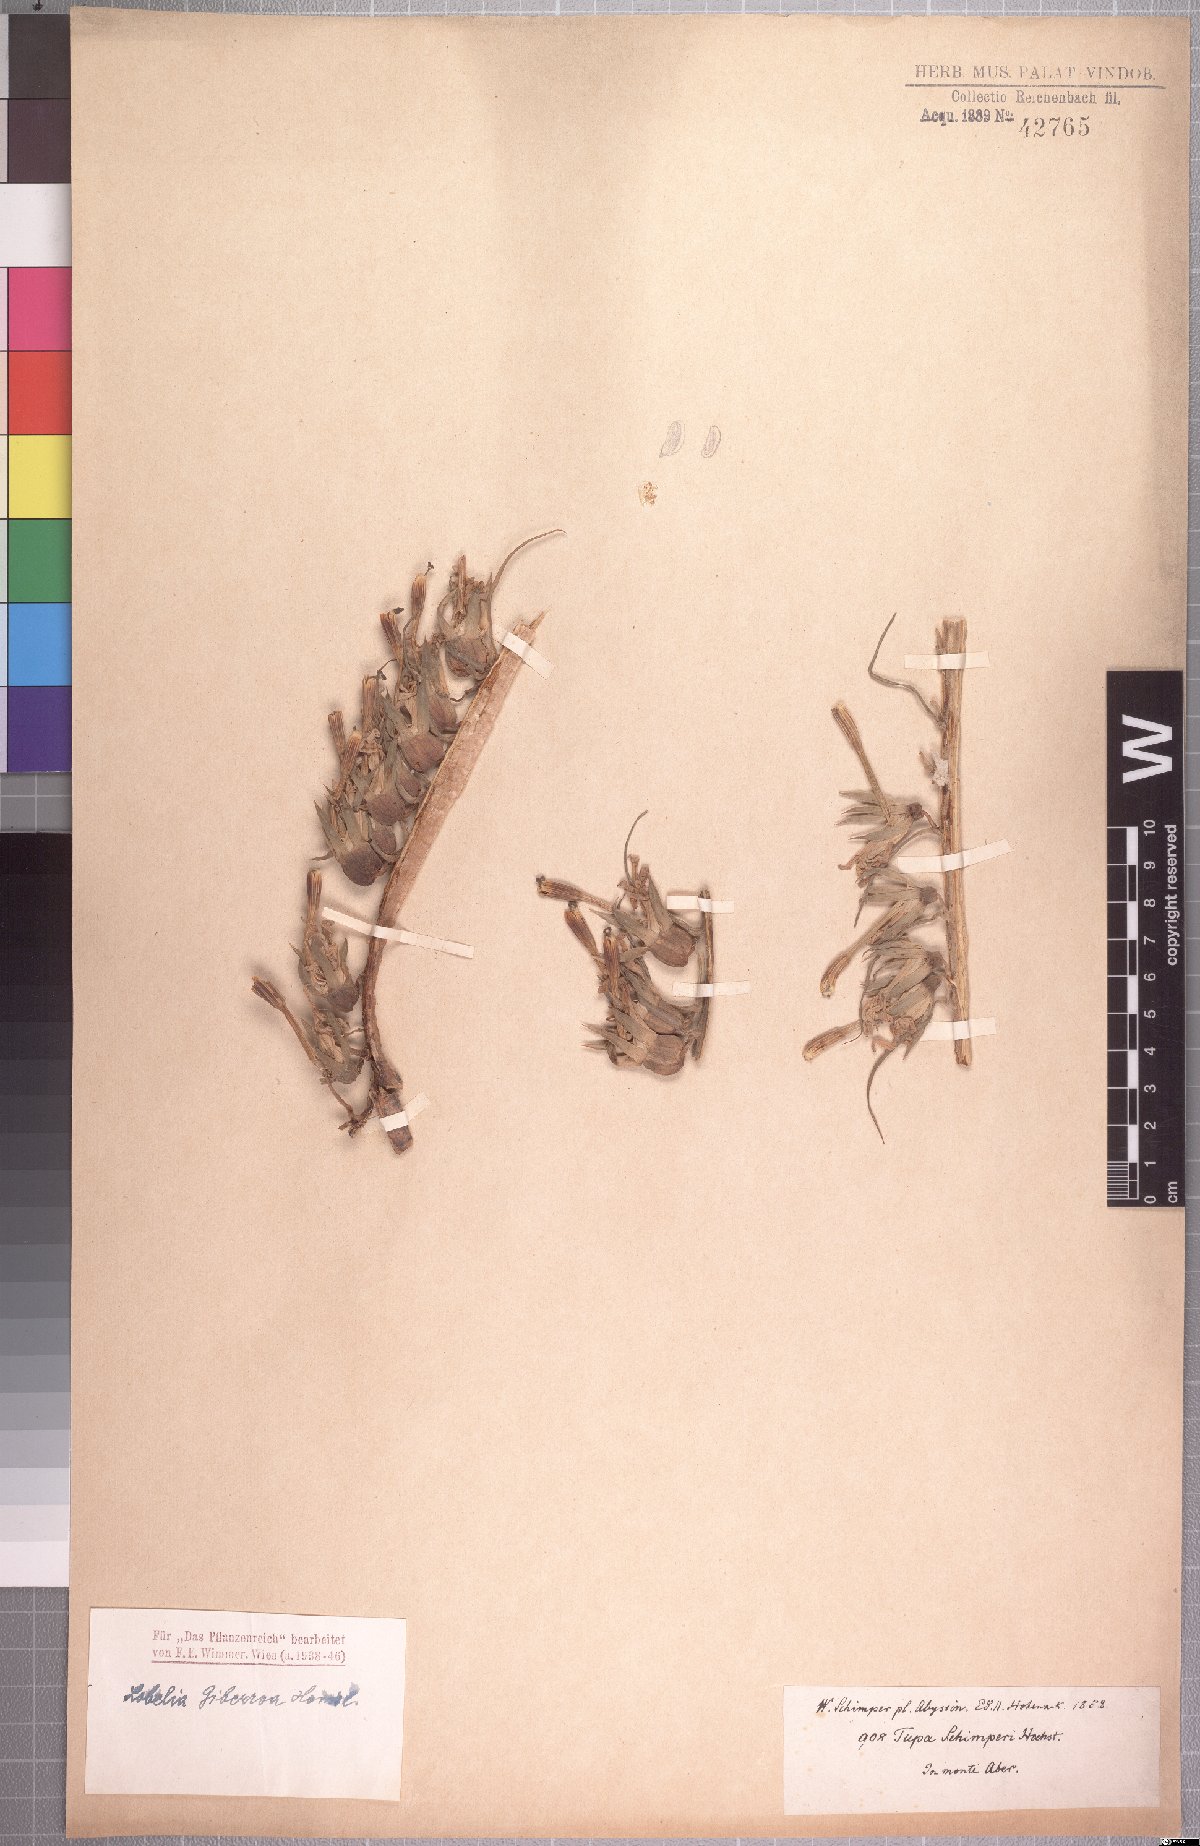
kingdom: Plantae
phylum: Tracheophyta
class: Magnoliopsida
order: Asterales
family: Campanulaceae
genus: Lobelia
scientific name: Lobelia giberroa
